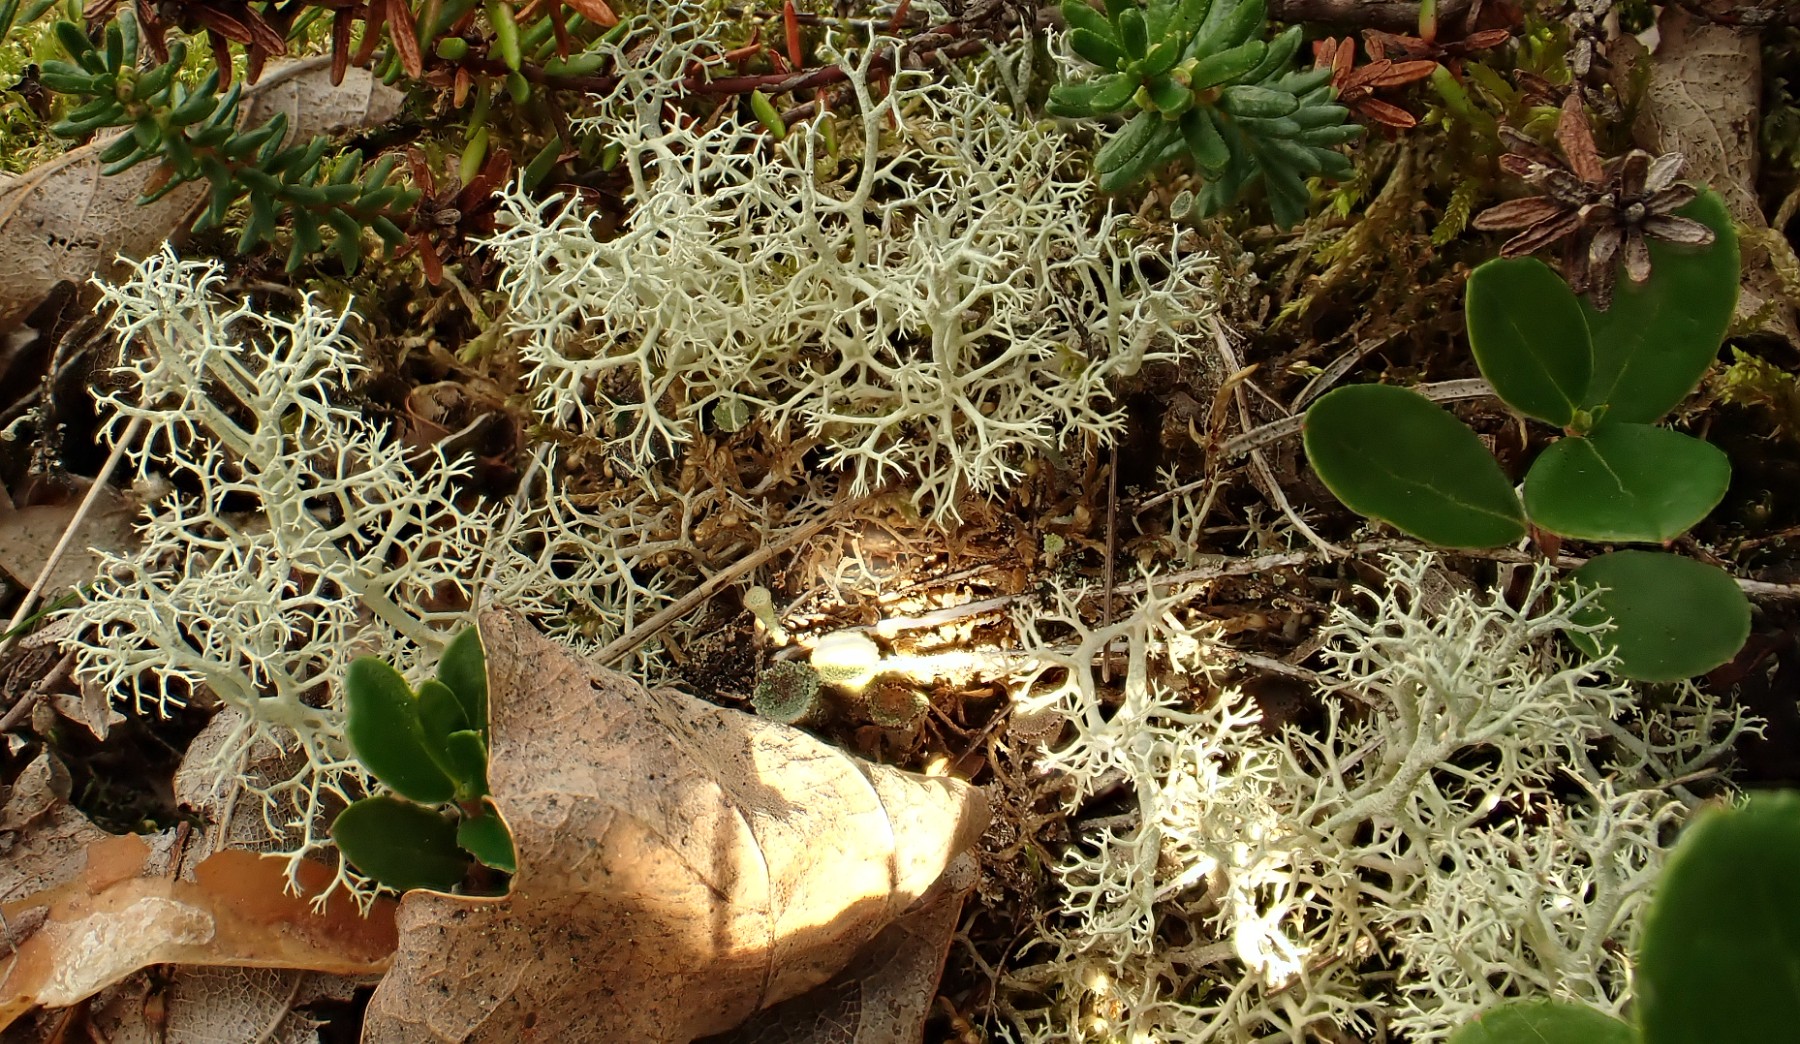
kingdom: Fungi
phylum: Ascomycota
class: Lecanoromycetes
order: Lecanorales
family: Cladoniaceae
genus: Cladonia
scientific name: Cladonia portentosa
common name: hede-rensdyrlav
